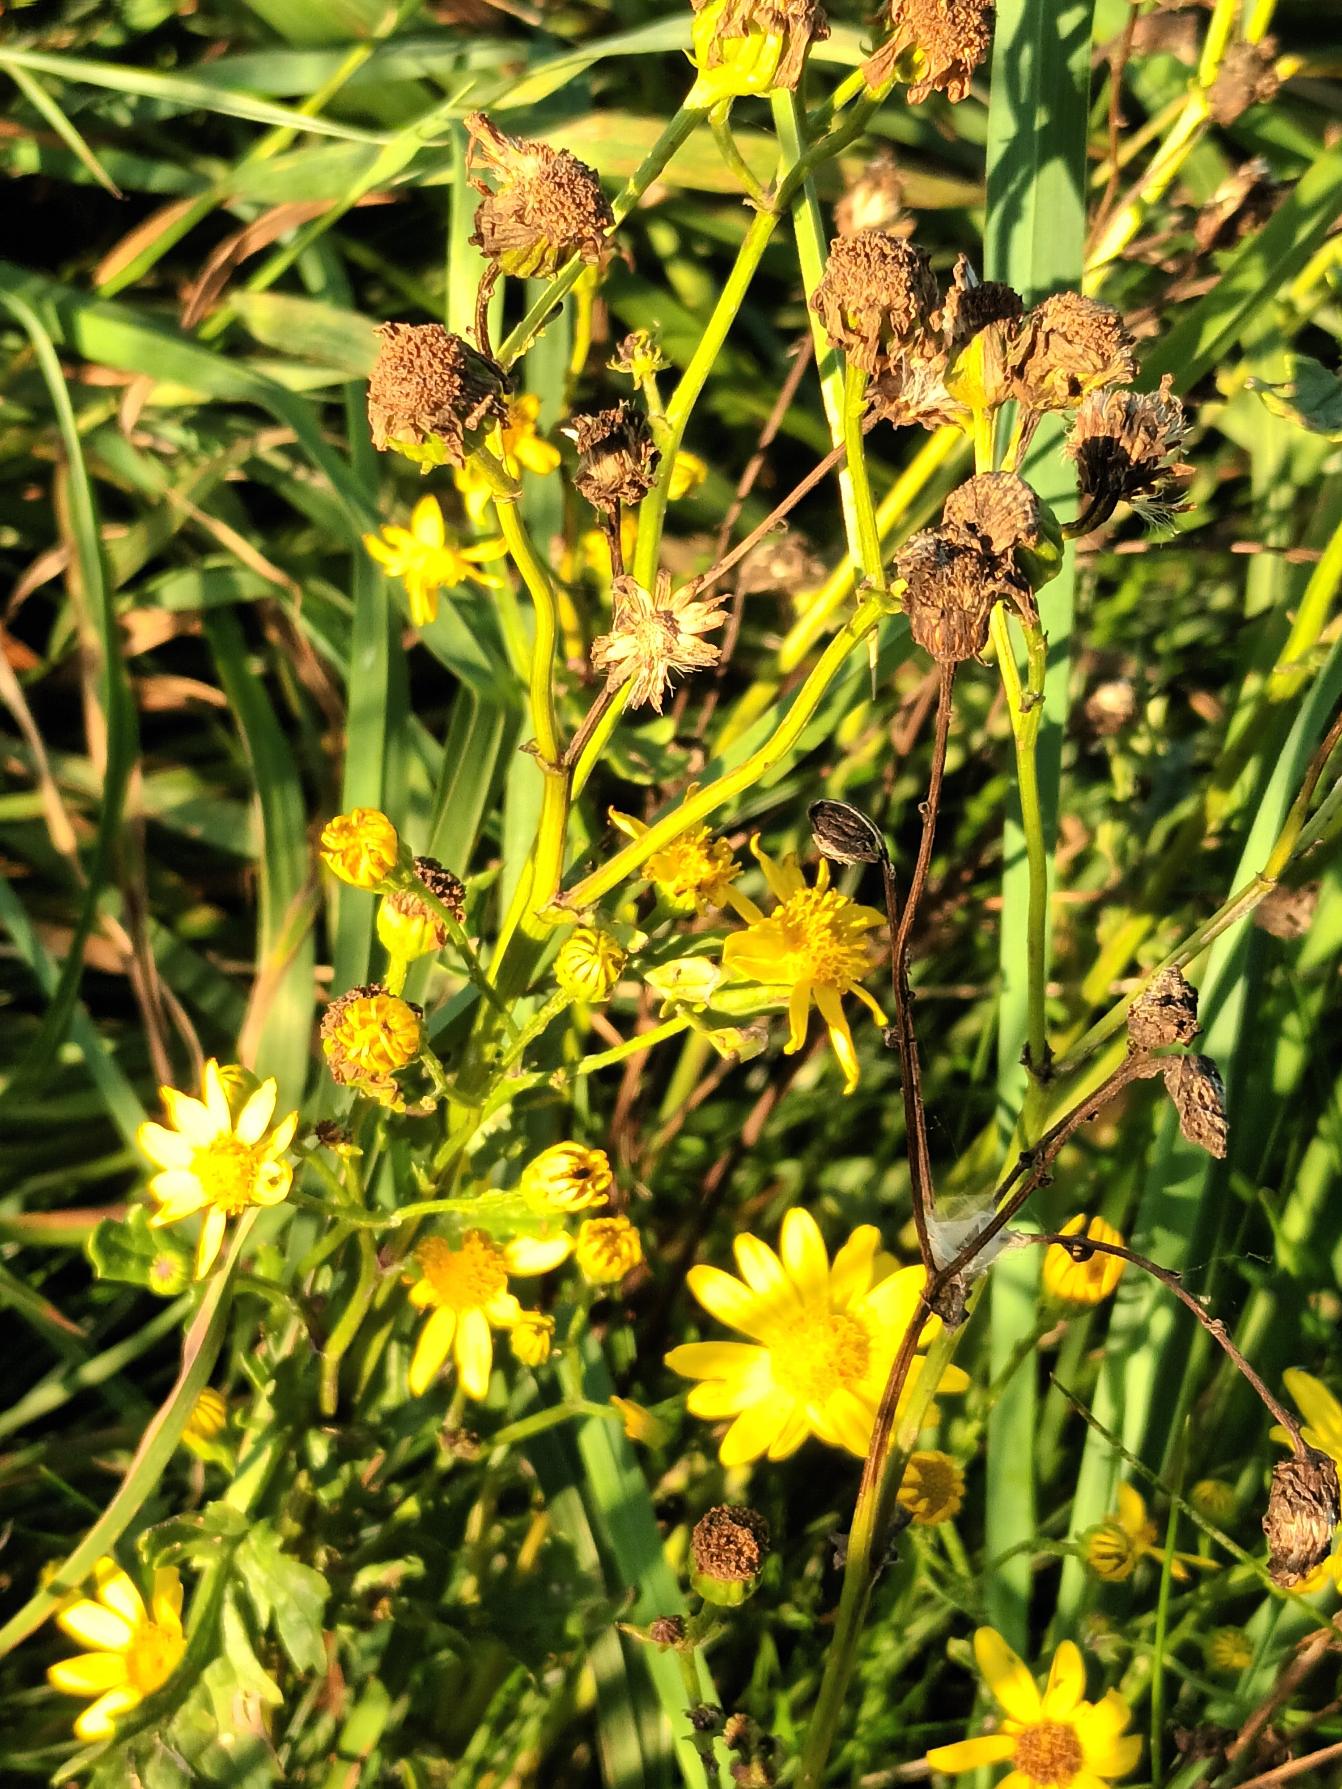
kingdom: Plantae
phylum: Tracheophyta
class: Magnoliopsida
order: Asterales
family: Asteraceae
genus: Jacobaea
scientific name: Jacobaea aquatica
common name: Vand-brandbæger
